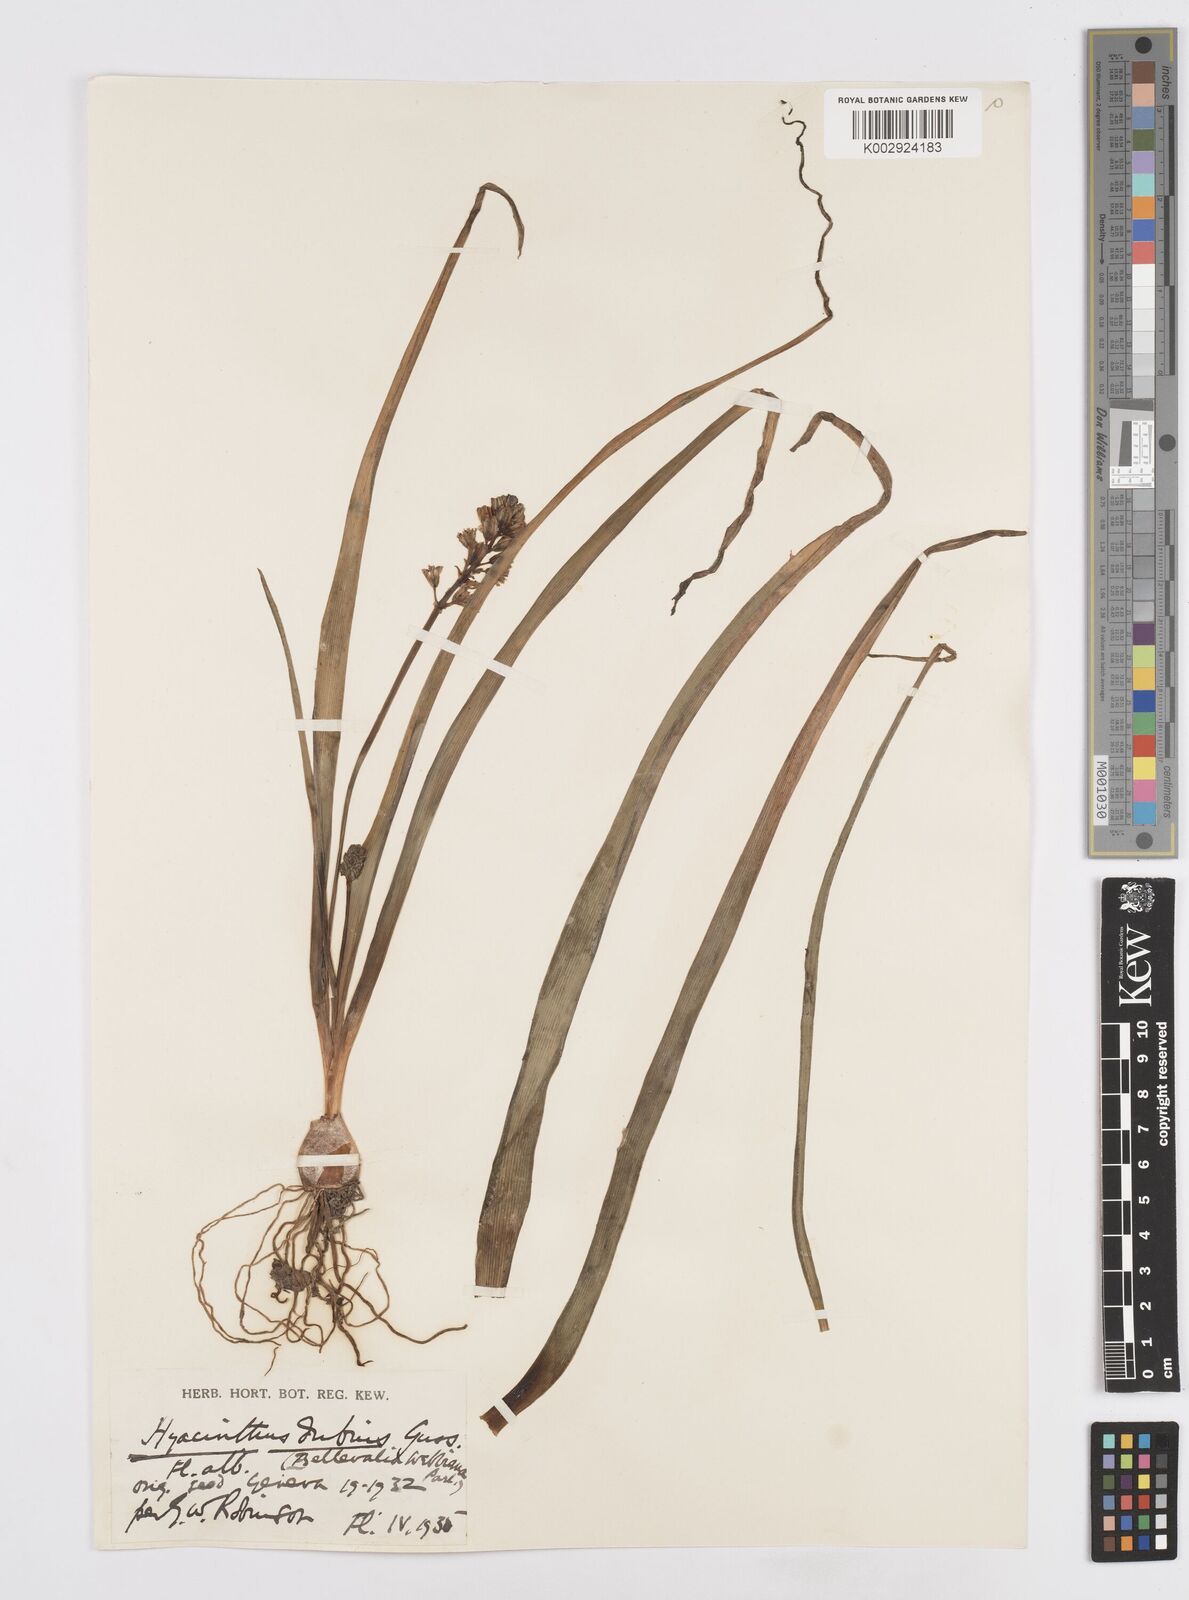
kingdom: Plantae
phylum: Tracheophyta
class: Liliopsida
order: Asparagales
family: Asparagaceae
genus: Bellevalia
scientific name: Bellevalia
